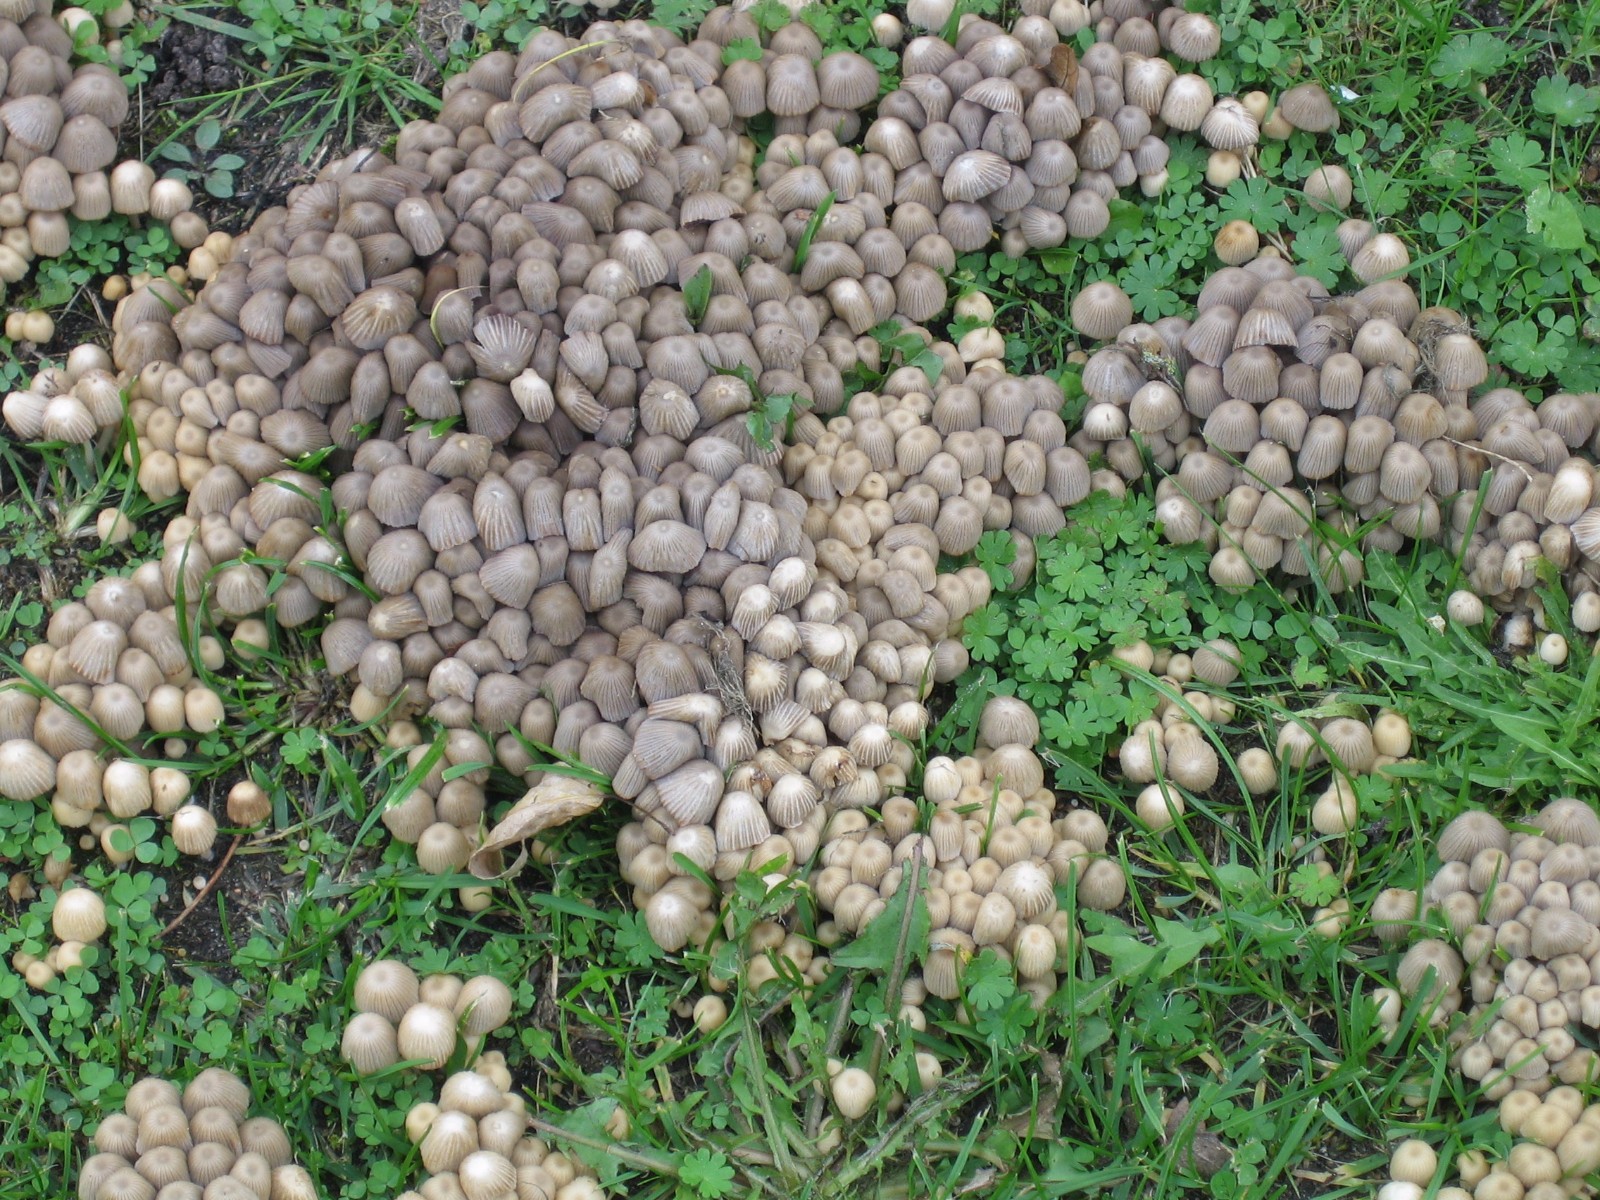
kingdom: Fungi
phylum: Basidiomycota
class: Agaricomycetes
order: Agaricales
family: Psathyrellaceae
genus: Coprinellus
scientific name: Coprinellus disseminatus
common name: bredsået blækhat
